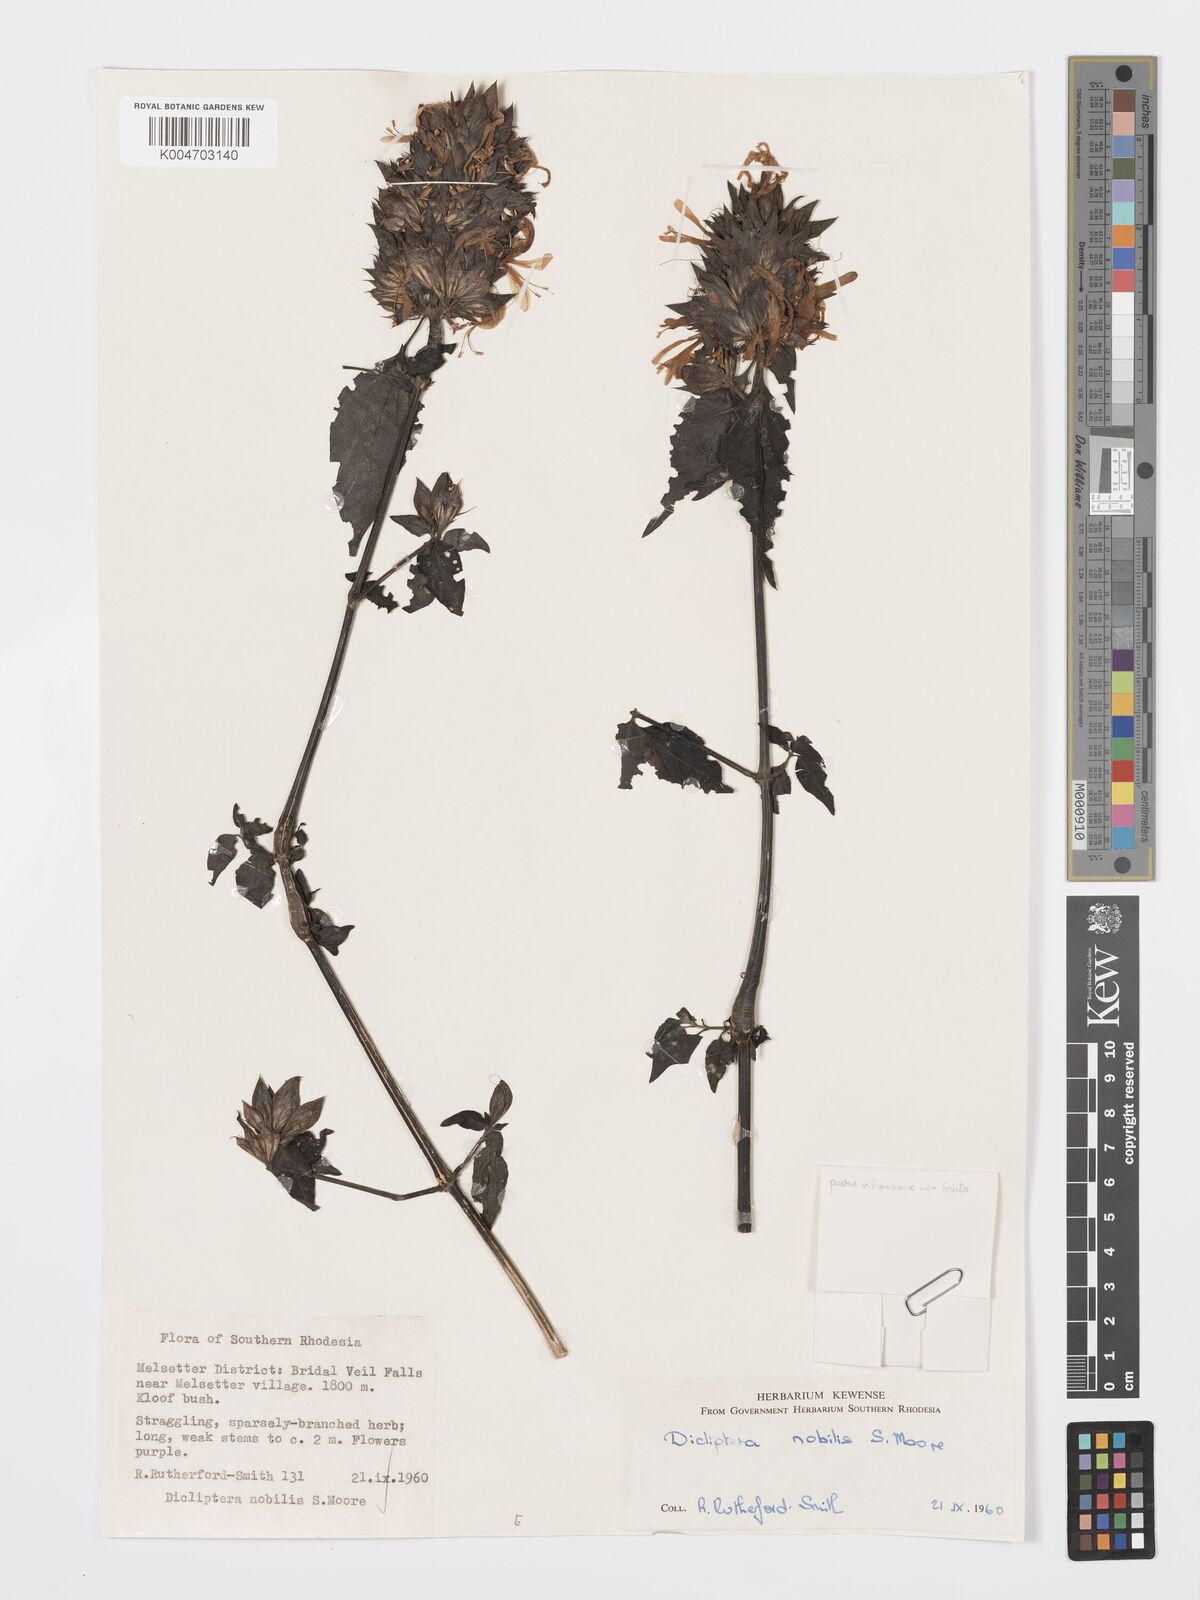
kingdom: Plantae
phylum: Tracheophyta
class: Magnoliopsida
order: Lamiales
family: Acanthaceae
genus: Dicliptera
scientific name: Dicliptera clinopodia
